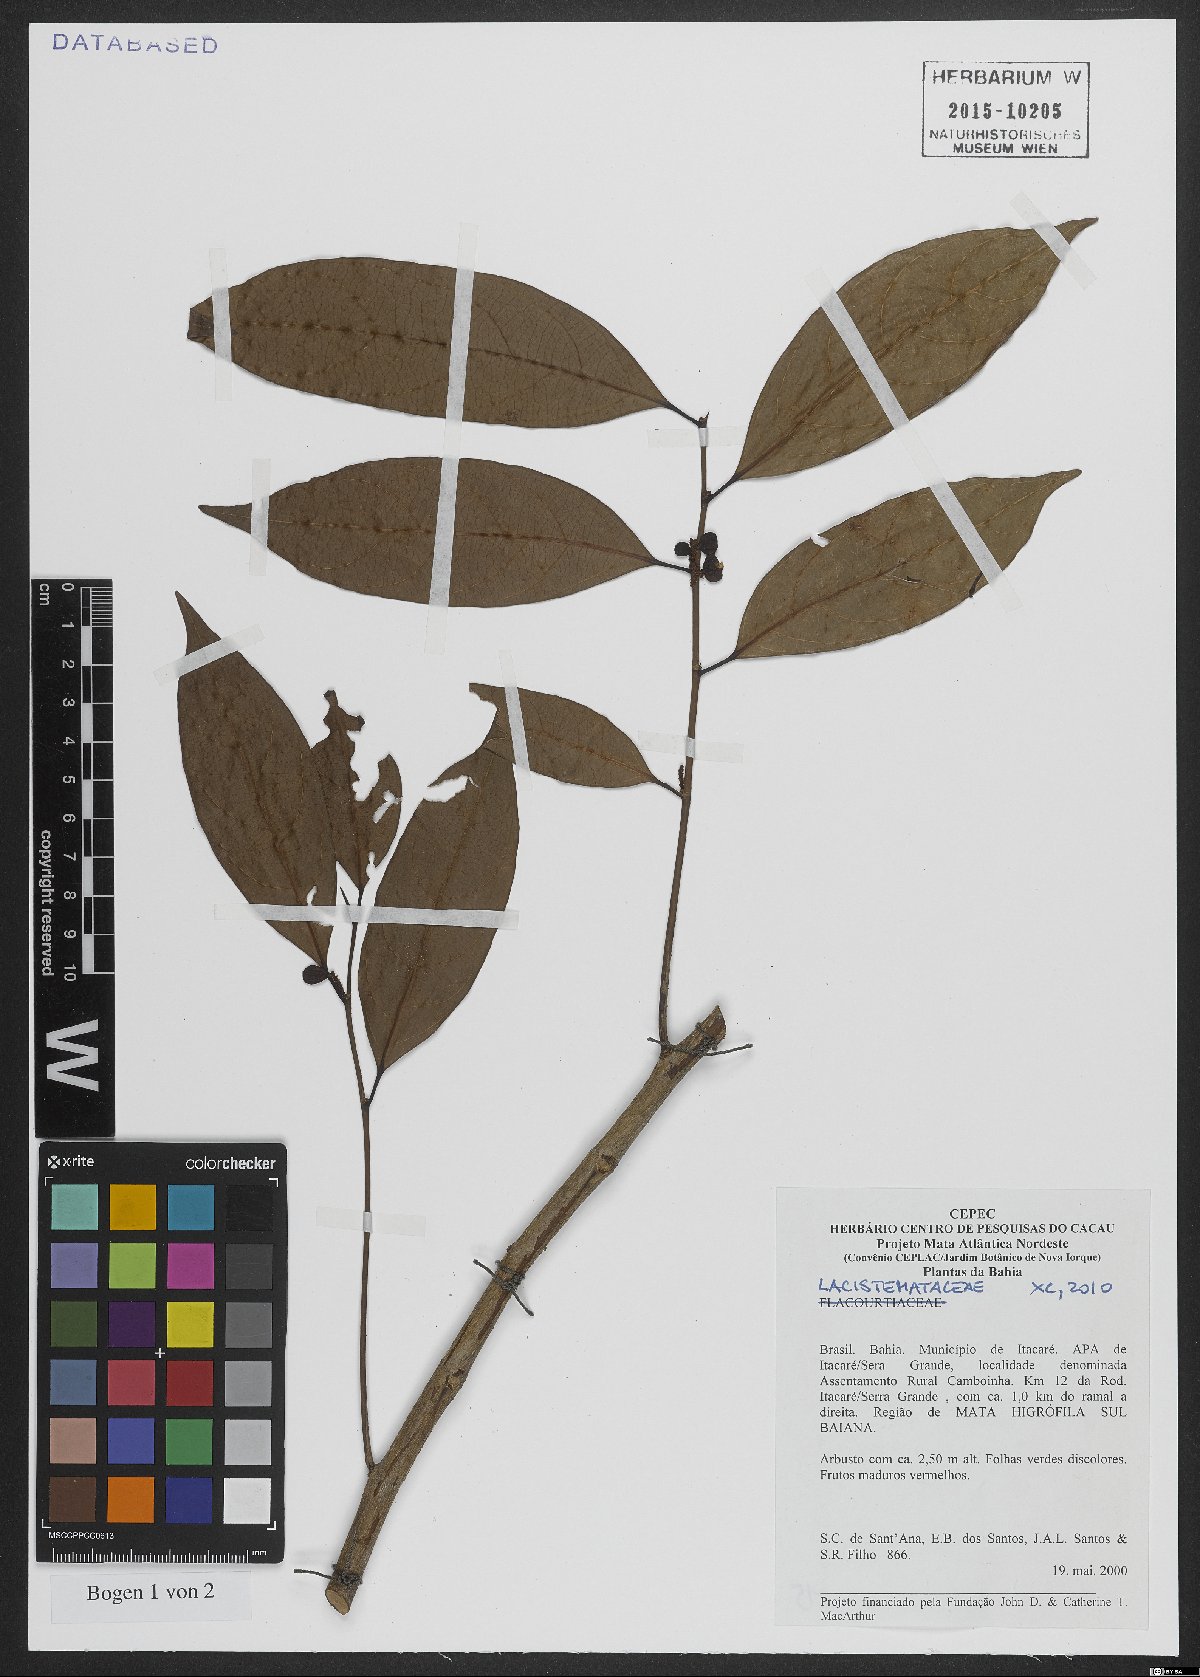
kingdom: Plantae
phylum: Tracheophyta
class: Magnoliopsida
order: Malpighiales
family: Lacistemataceae
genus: Lacistema
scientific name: Lacistema robustum
